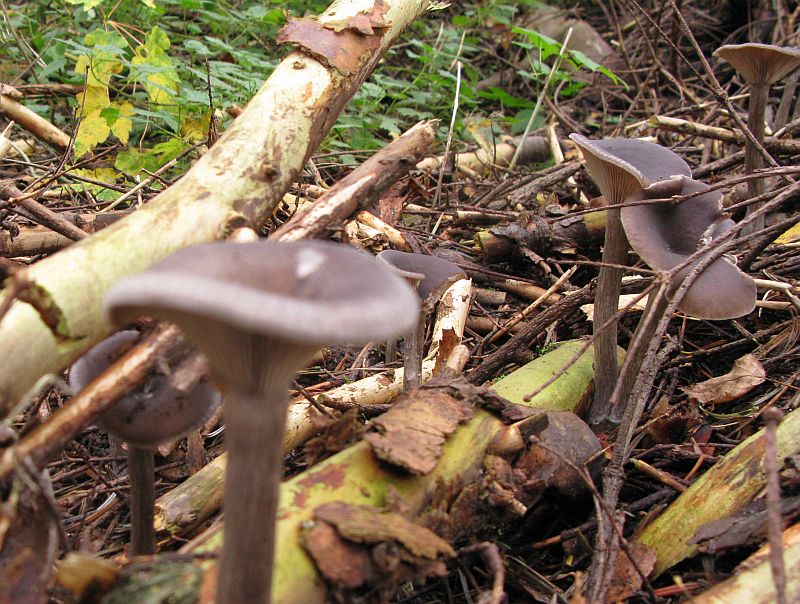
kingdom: Fungi
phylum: Basidiomycota
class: Agaricomycetes
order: Agaricales
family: Pseudoclitocybaceae
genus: Pseudoclitocybe
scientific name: Pseudoclitocybe cyathiformis
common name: almindelig bægertragthat
